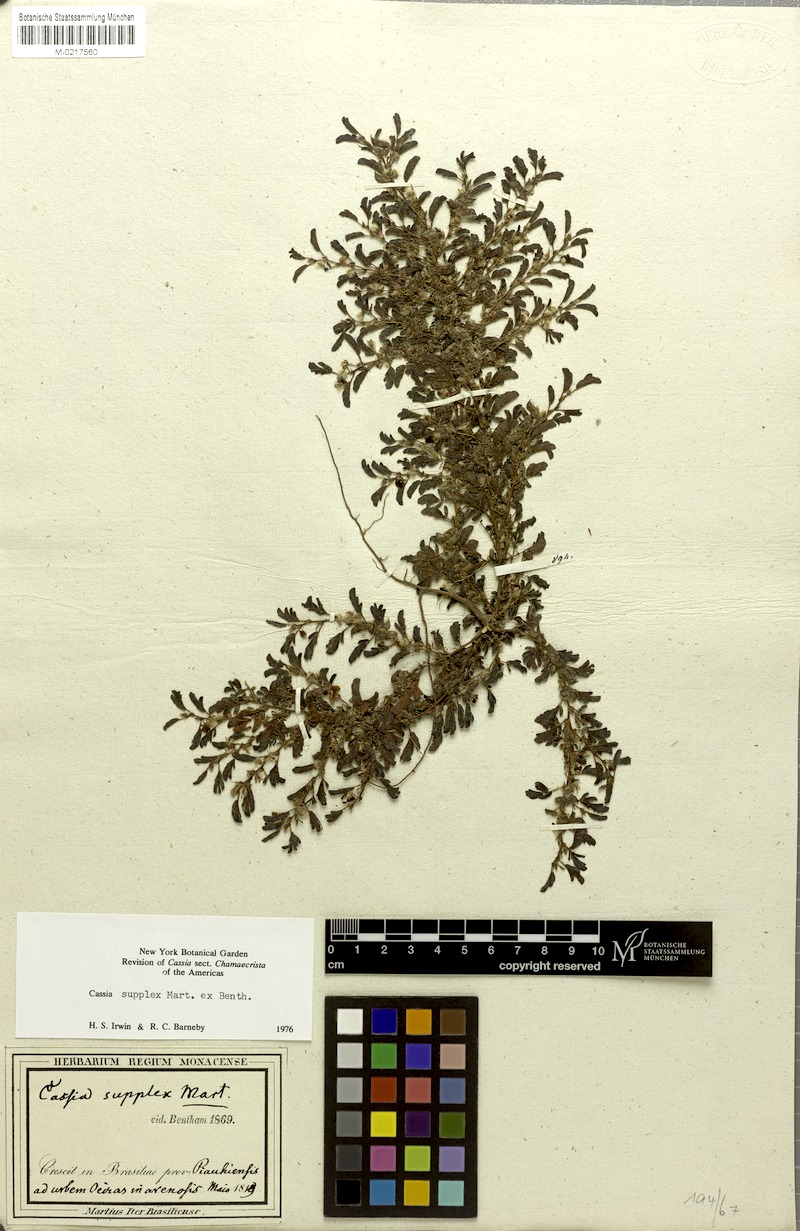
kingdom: Plantae
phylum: Tracheophyta
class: Magnoliopsida
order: Fabales
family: Fabaceae
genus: Chamaecrista
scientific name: Chamaecrista supplex
